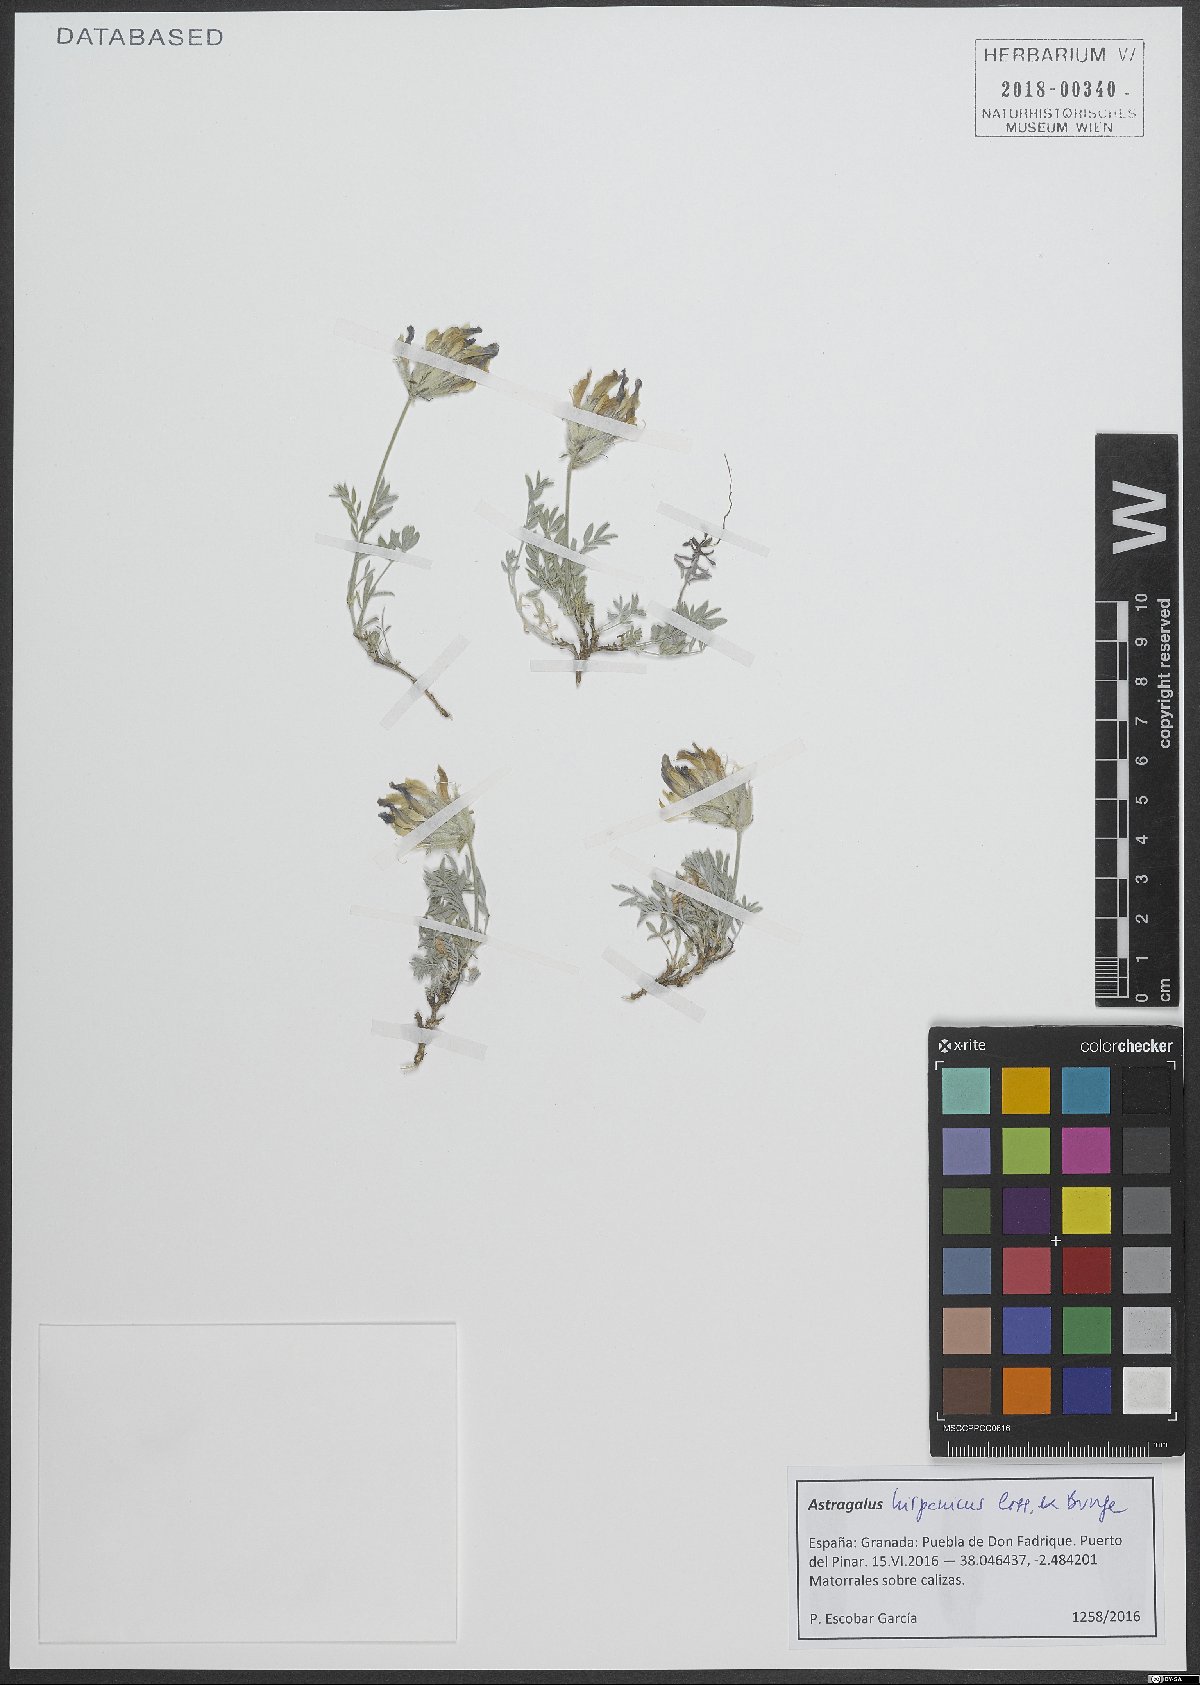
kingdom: Plantae
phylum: Tracheophyta
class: Magnoliopsida
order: Fabales
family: Fabaceae
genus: Astragalus
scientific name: Astragalus hispanicus
